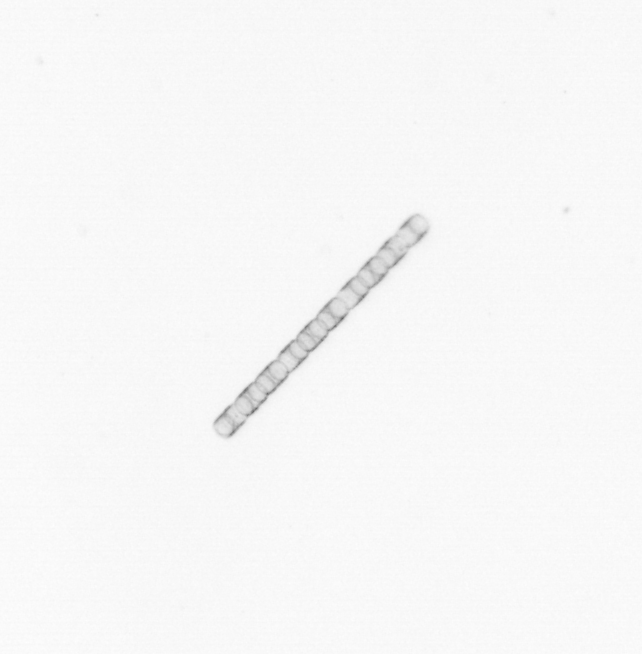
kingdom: Chromista
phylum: Ochrophyta
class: Bacillariophyceae
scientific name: Bacillariophyceae
